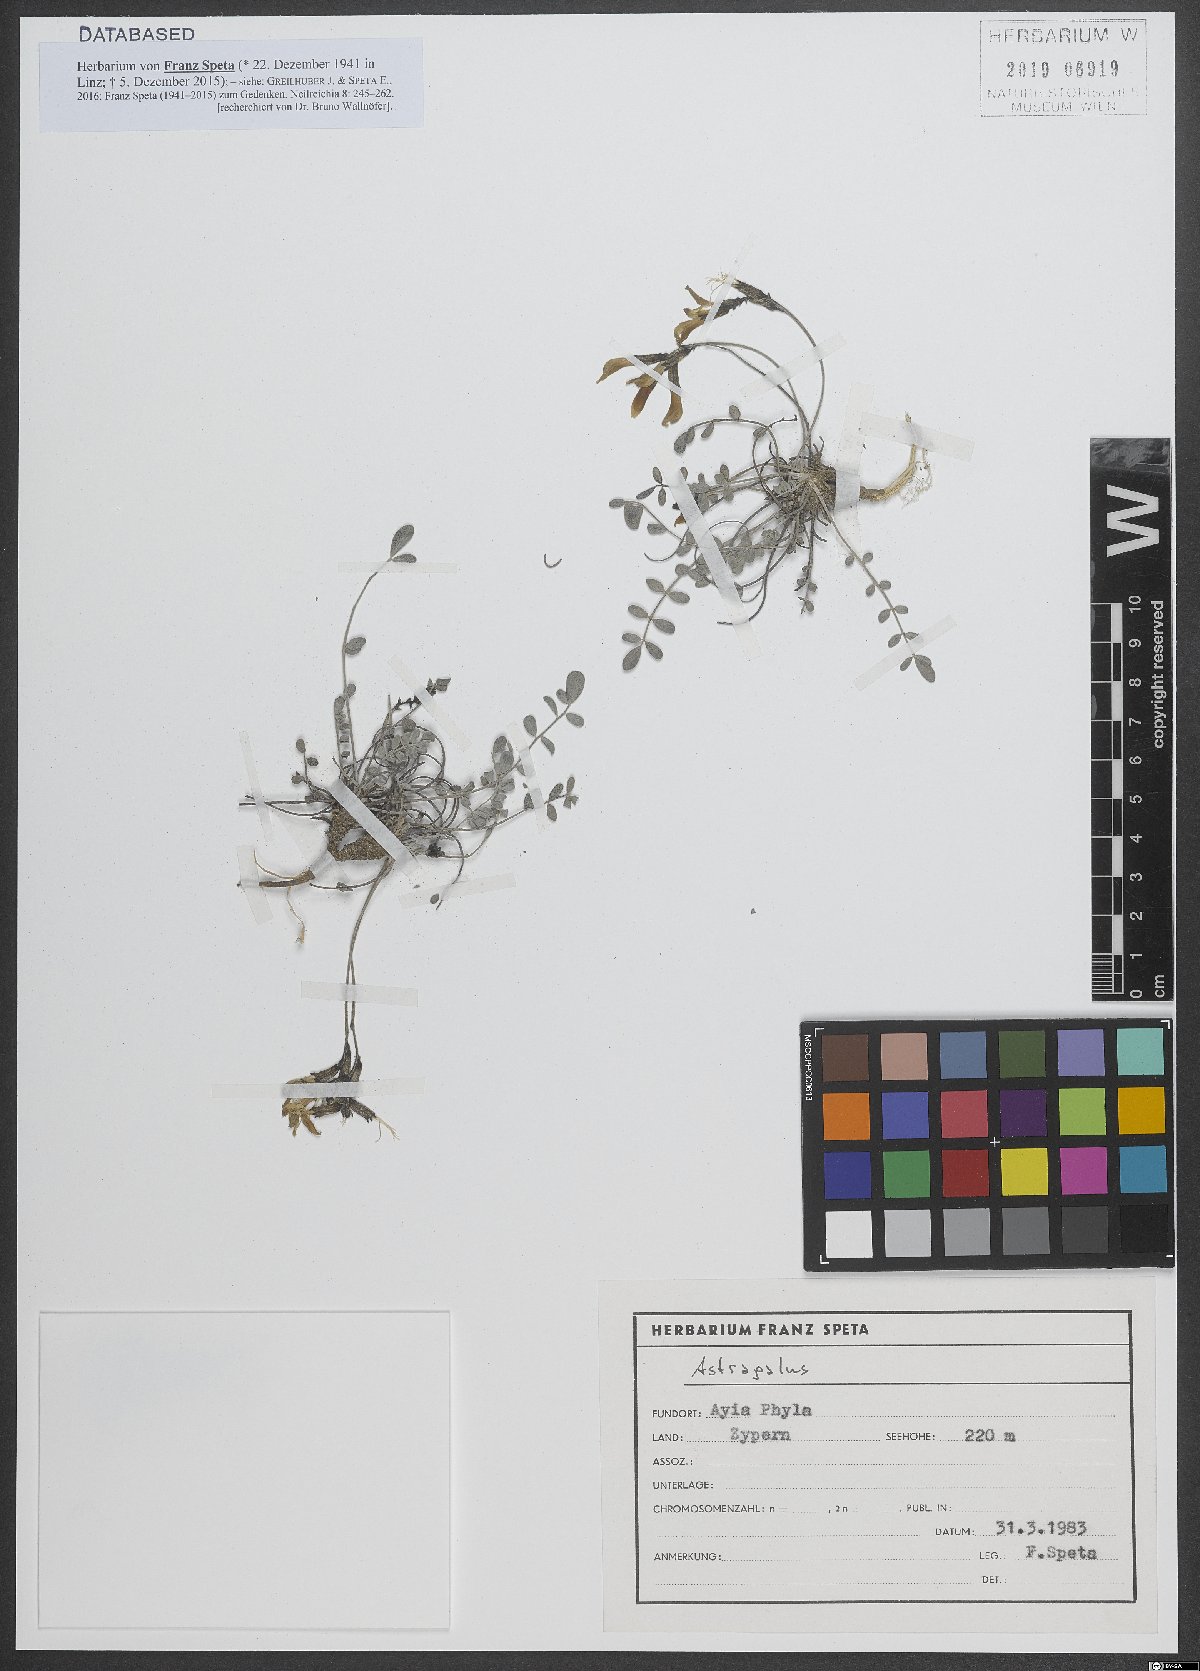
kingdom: Plantae
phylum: Tracheophyta
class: Magnoliopsida
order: Fabales
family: Fabaceae
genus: Astragalus
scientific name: Astragalus
